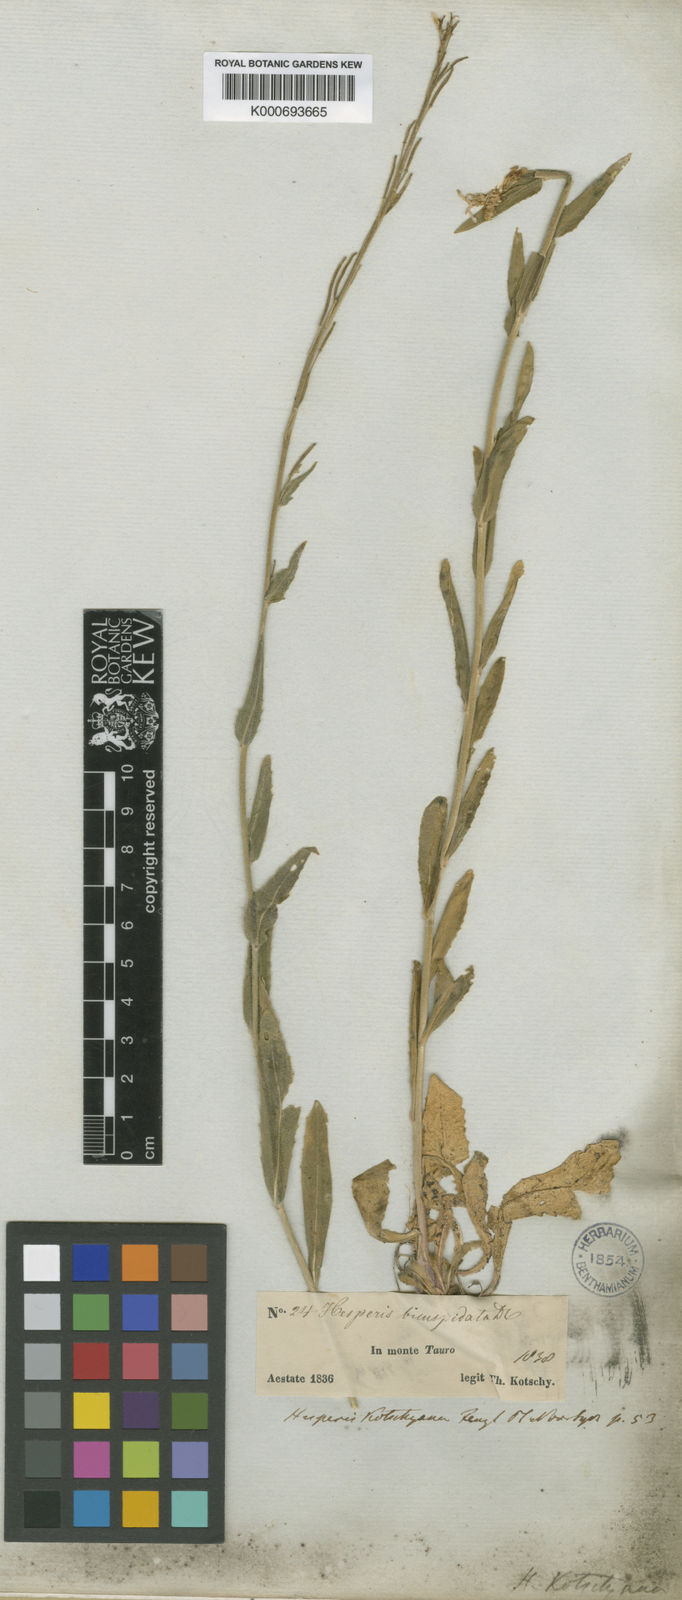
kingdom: Plantae
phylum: Tracheophyta
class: Magnoliopsida
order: Brassicales
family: Brassicaceae
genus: Hesperis
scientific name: Hesperis
